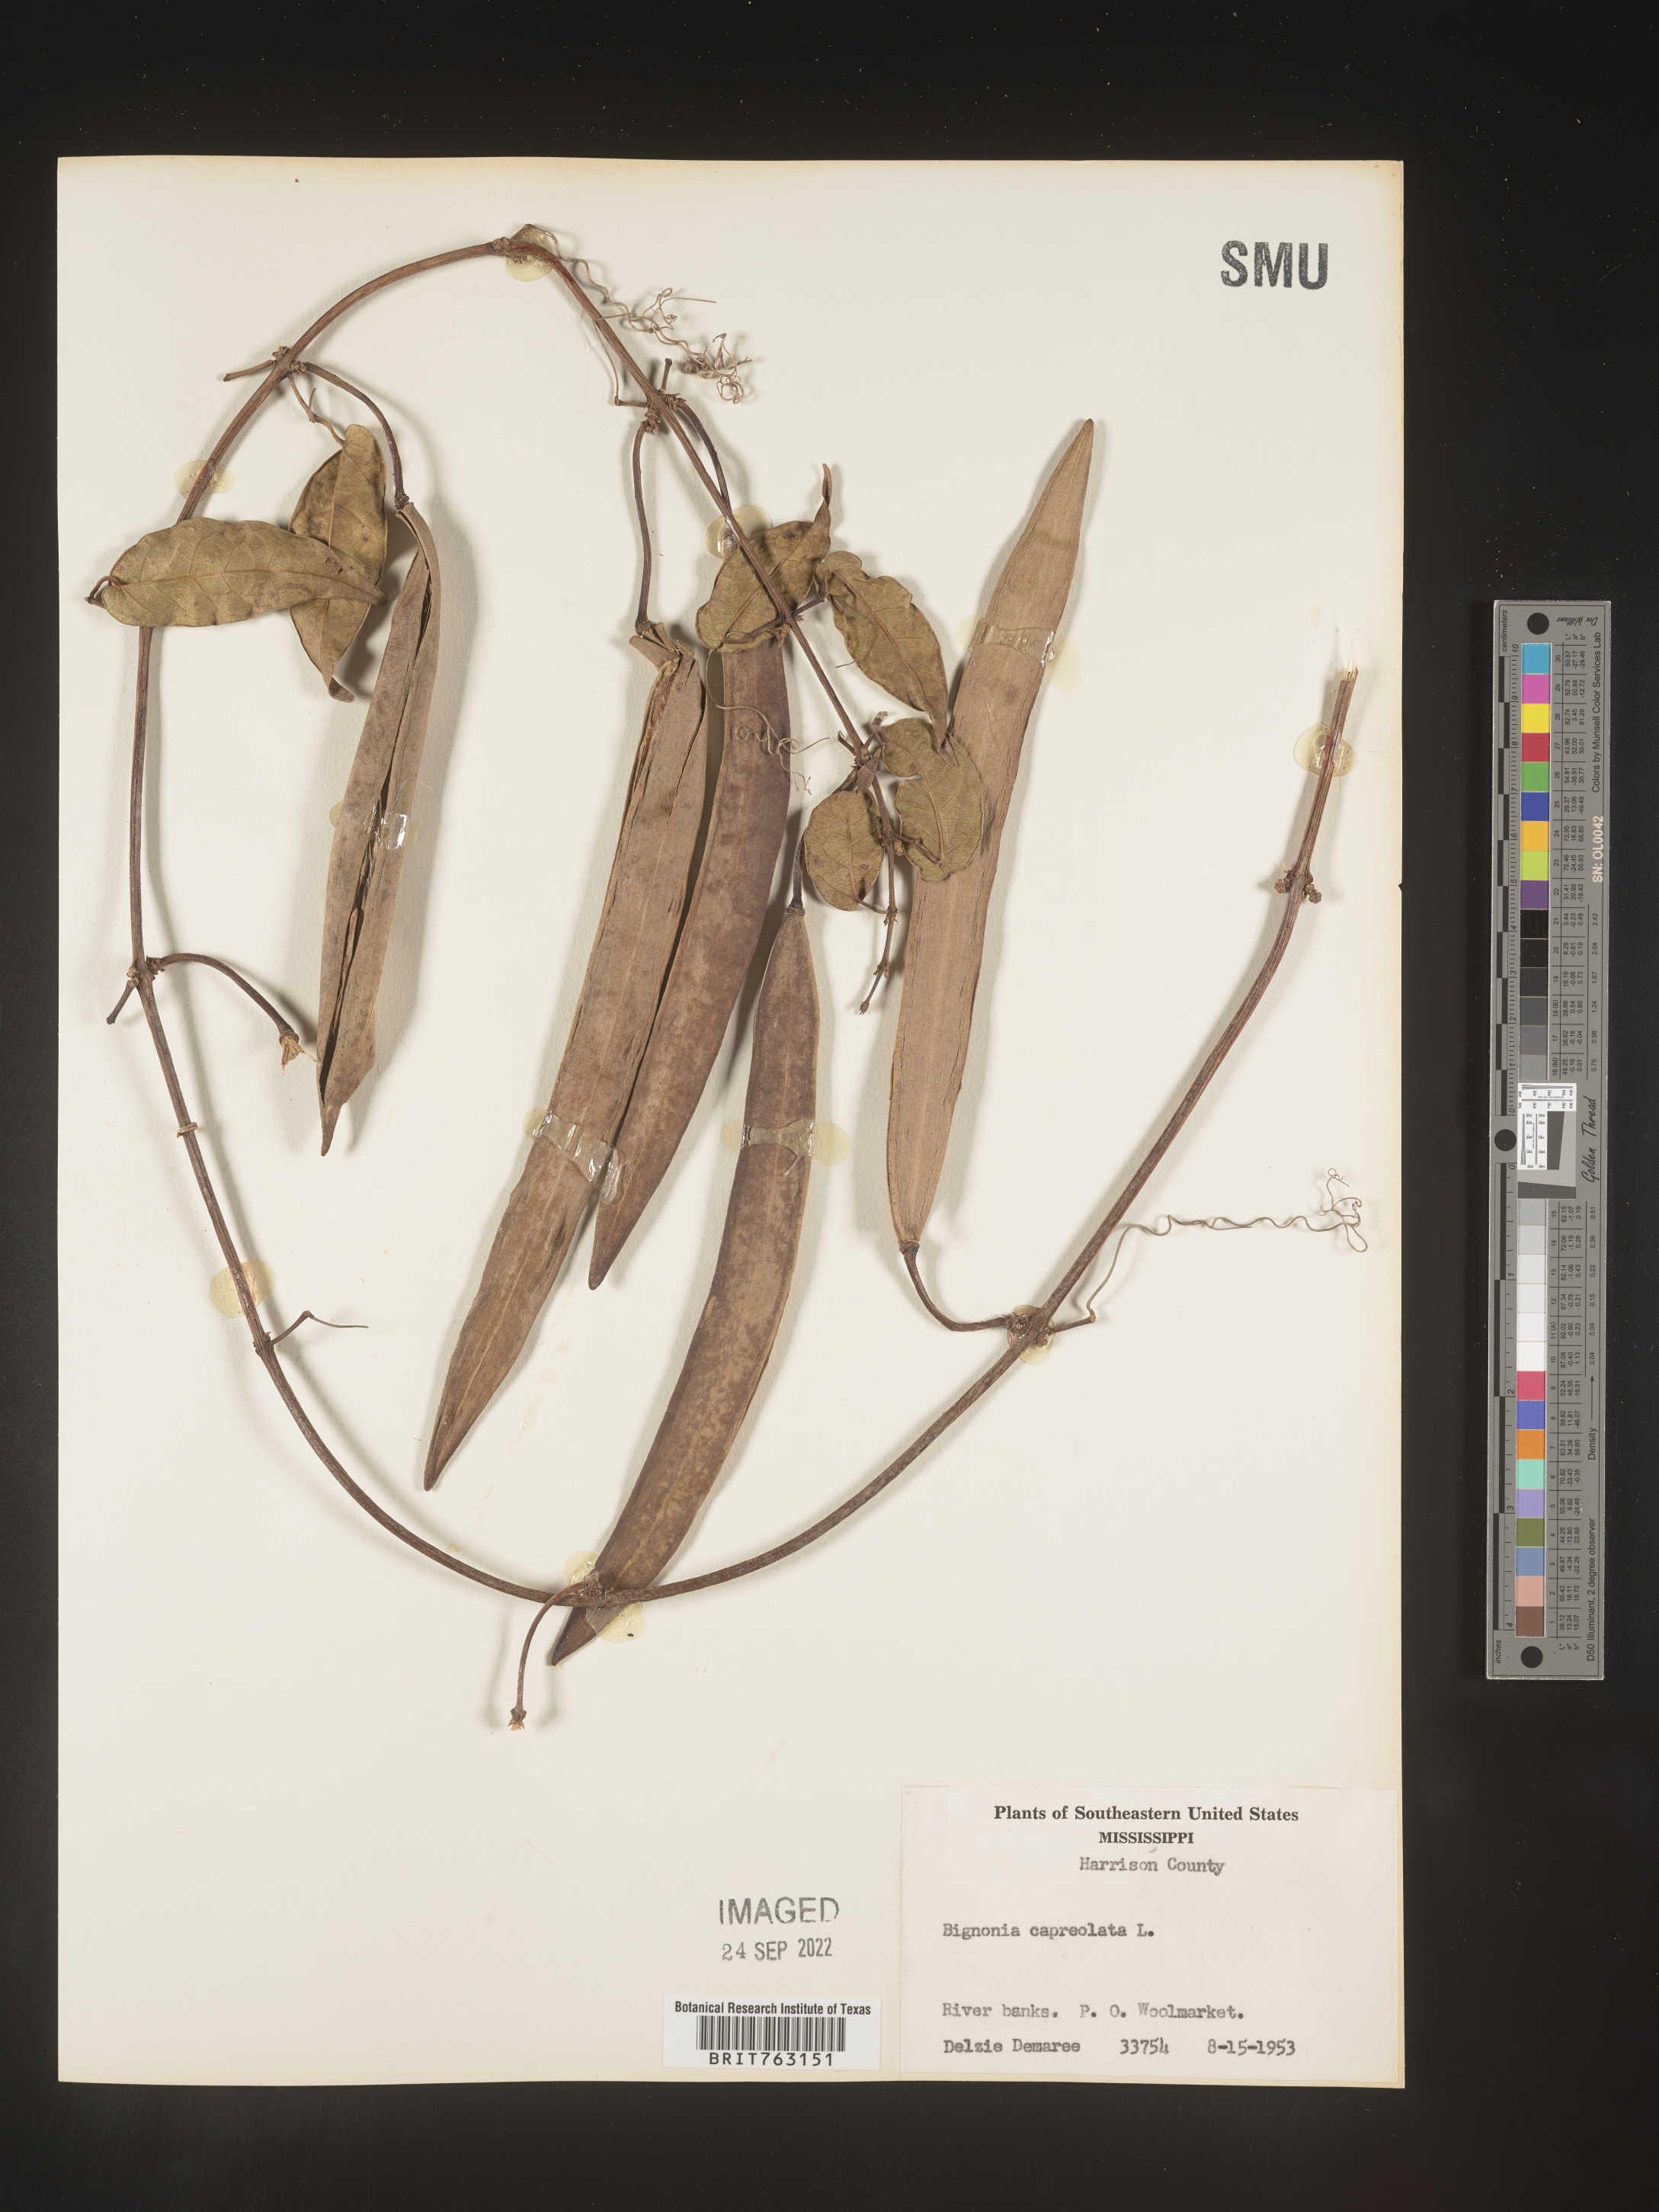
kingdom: Plantae
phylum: Tracheophyta
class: Magnoliopsida
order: Lamiales
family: Bignoniaceae
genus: Bignonia
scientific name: Bignonia capreolata
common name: Crossvine
